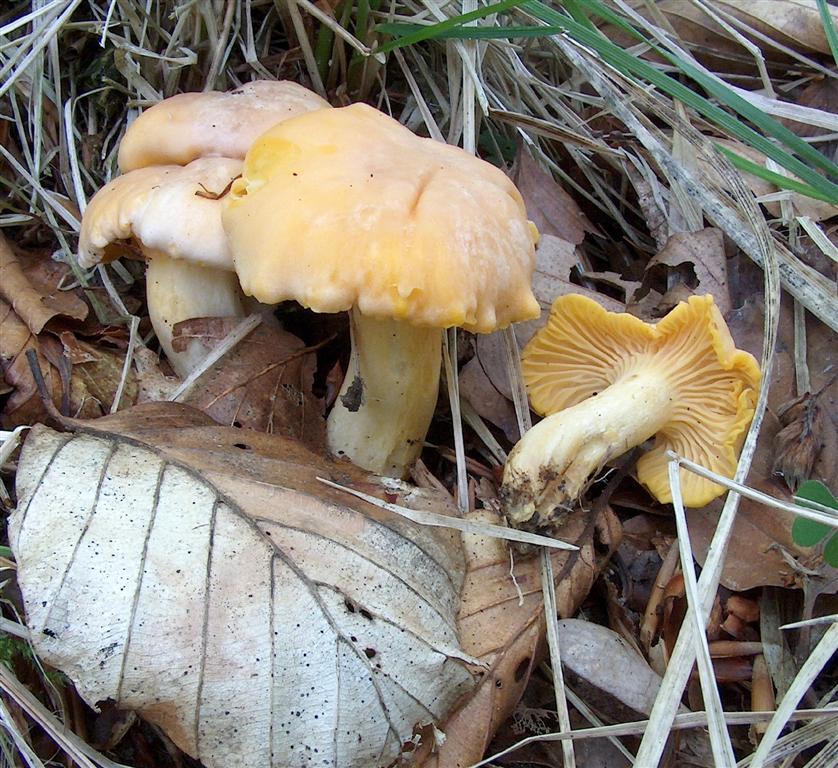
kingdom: Fungi
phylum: Basidiomycota
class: Agaricomycetes
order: Cantharellales
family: Hydnaceae
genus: Cantharellus
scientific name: Cantharellus pallens
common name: bleg kantarel
